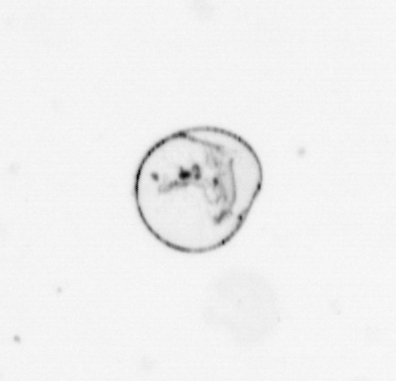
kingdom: Chromista
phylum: Myzozoa
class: Dinophyceae
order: Noctilucales
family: Noctilucaceae
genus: Noctiluca
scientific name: Noctiluca scintillans
